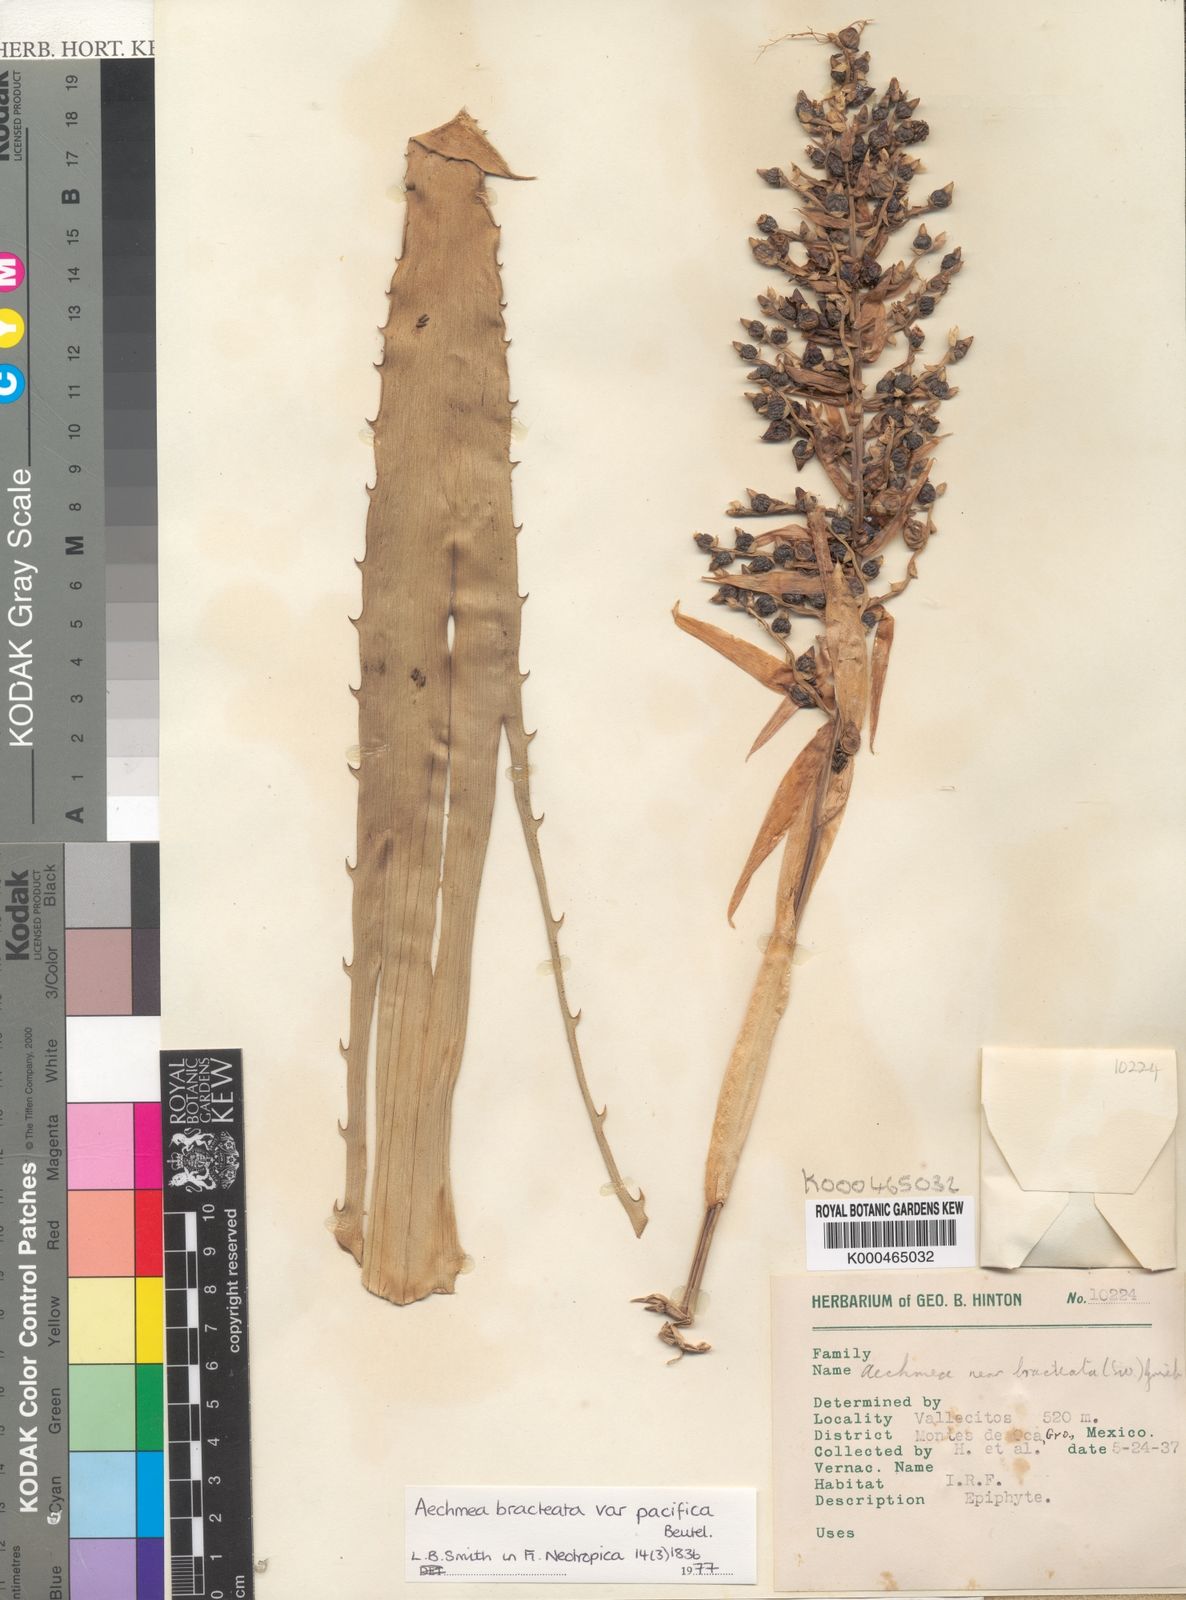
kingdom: Plantae
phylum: Tracheophyta
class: Liliopsida
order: Poales
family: Bromeliaceae
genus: Aechmea
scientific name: Aechmea bracteata
